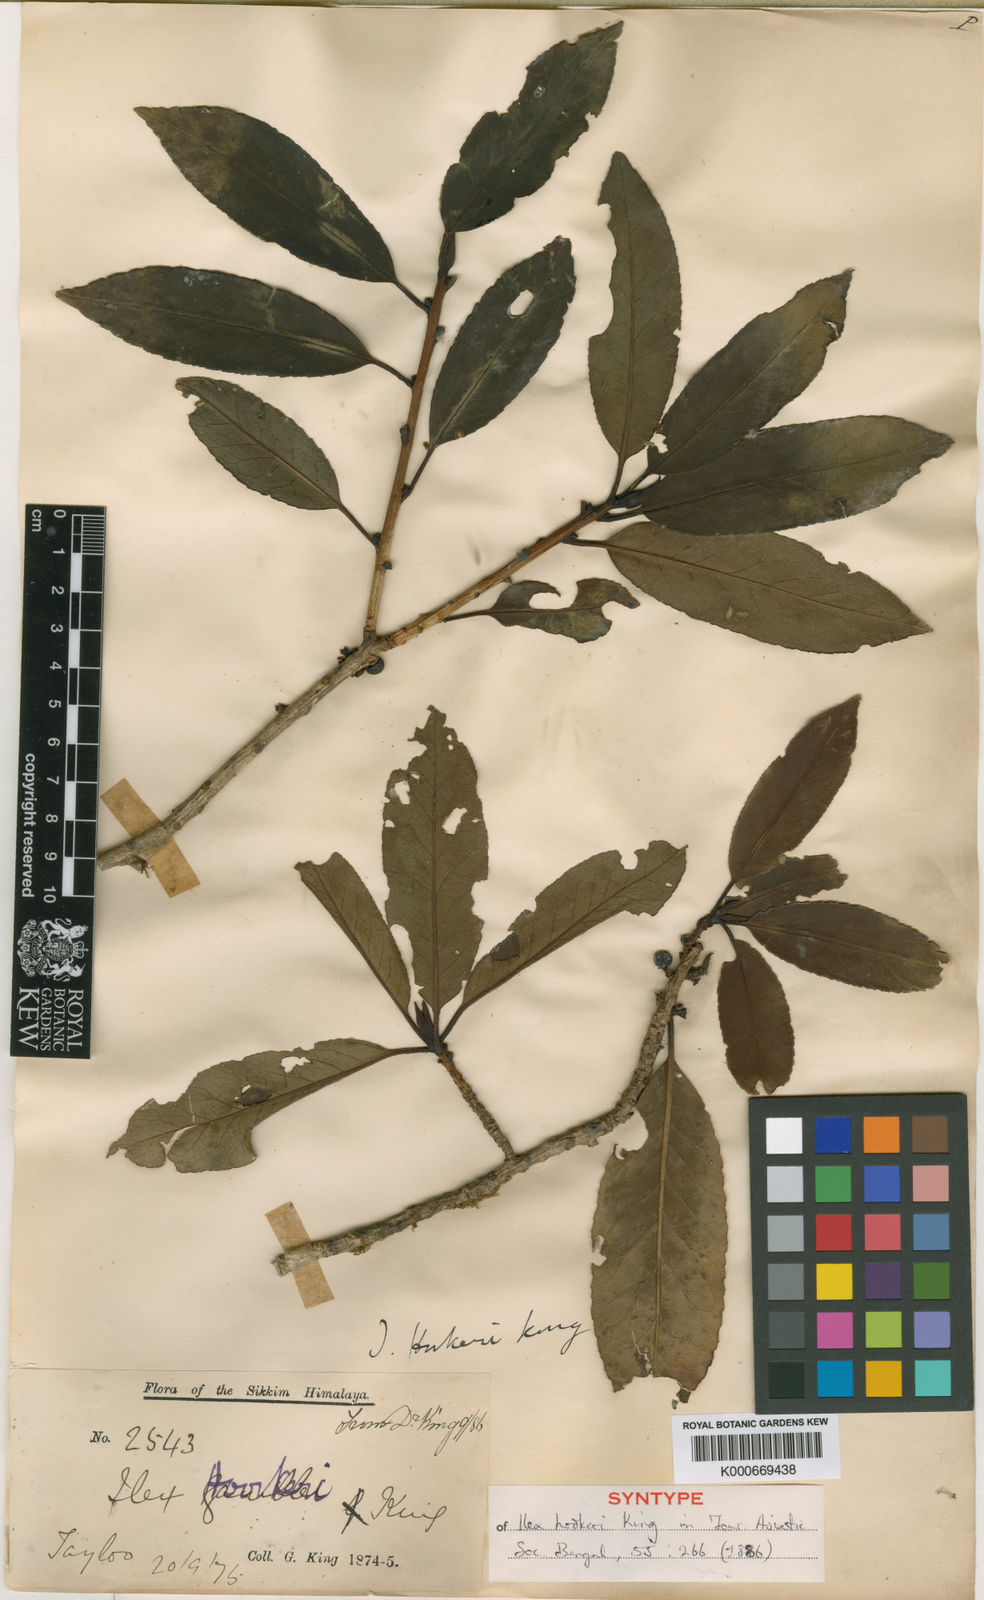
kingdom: Plantae
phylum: Tracheophyta
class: Magnoliopsida
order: Aquifoliales
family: Aquifoliaceae
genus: Ilex
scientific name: Ilex hookeri
